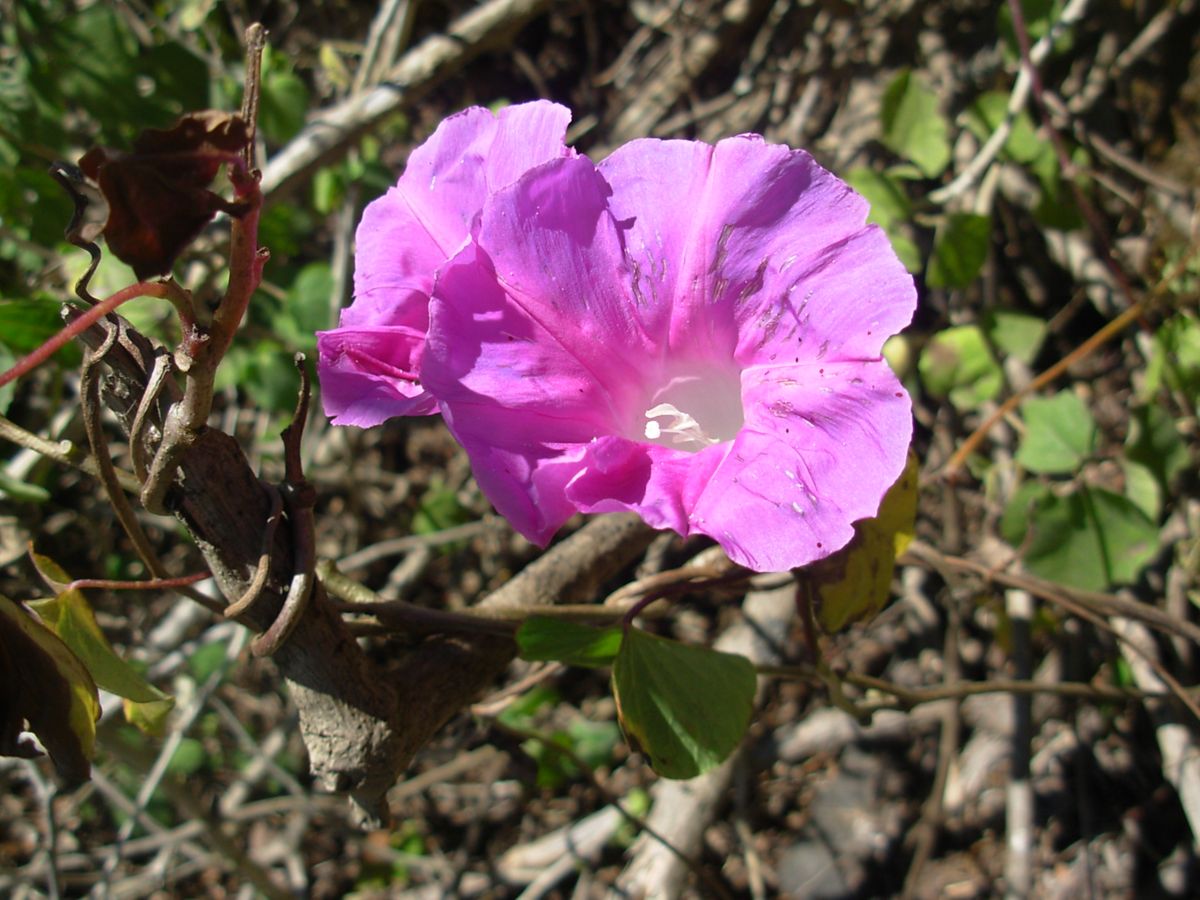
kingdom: Plantae
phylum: Tracheophyta
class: Magnoliopsida
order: Solanales
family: Convolvulaceae
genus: Ipomoea
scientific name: Ipomoea
